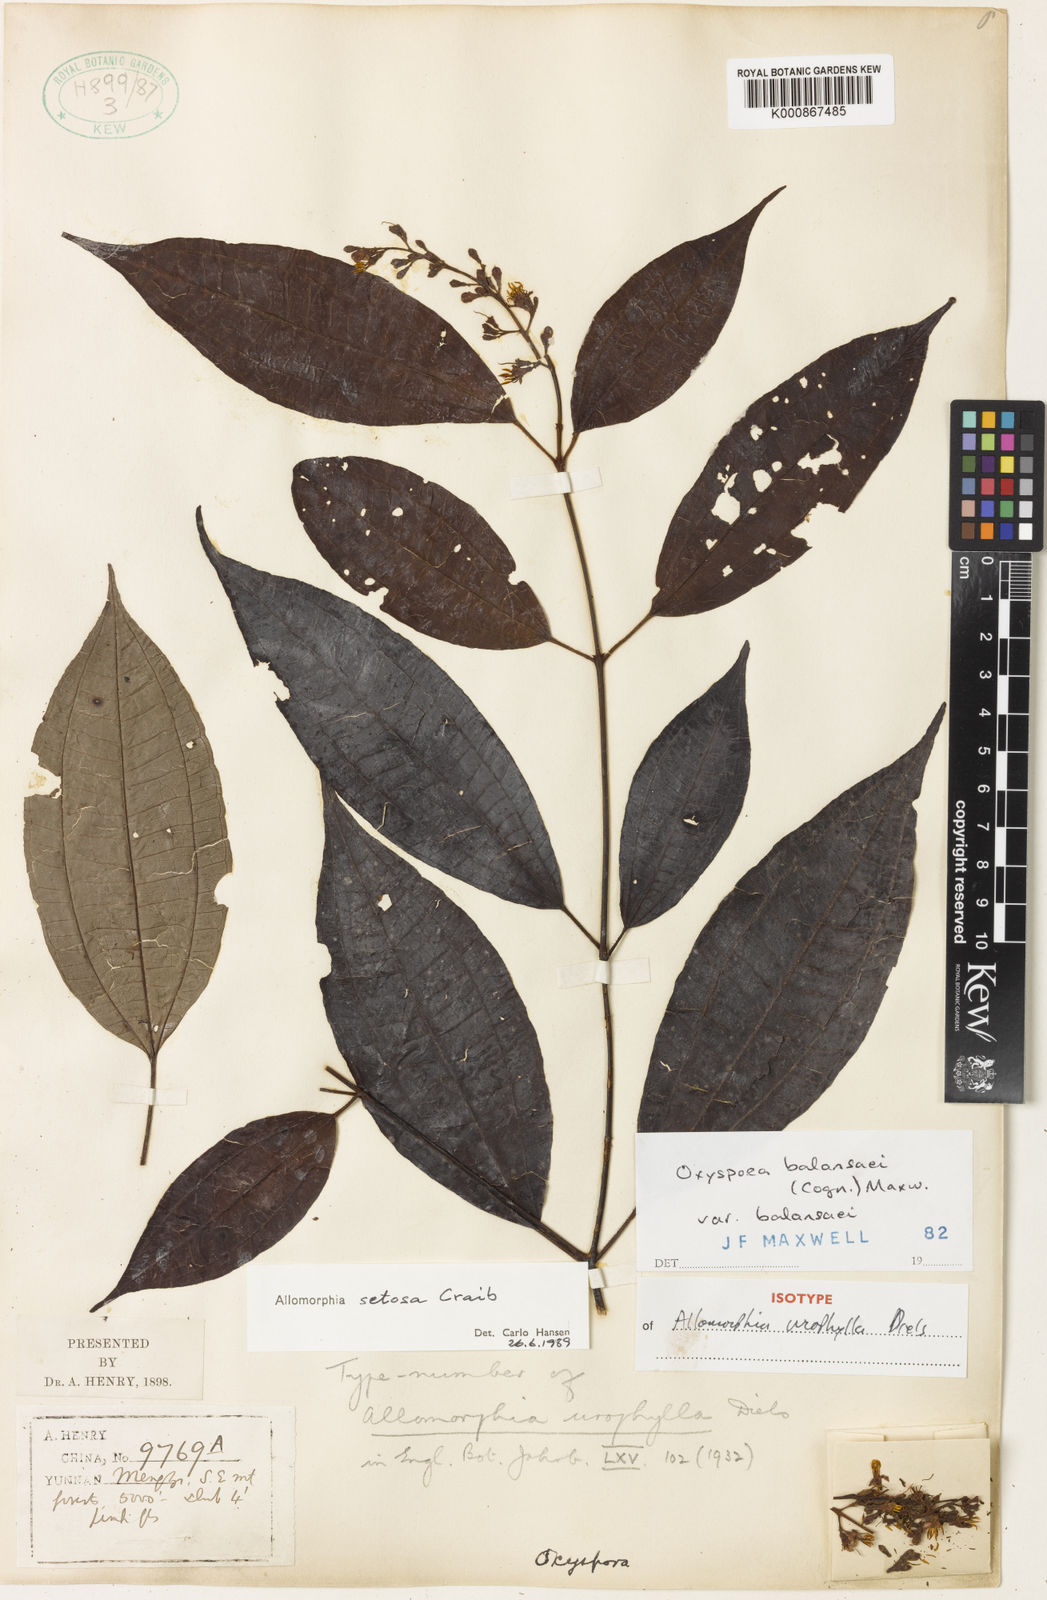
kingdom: Plantae
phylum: Tracheophyta
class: Magnoliopsida
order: Myrtales
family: Melastomataceae
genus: Allomorphia
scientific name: Allomorphia howellii
